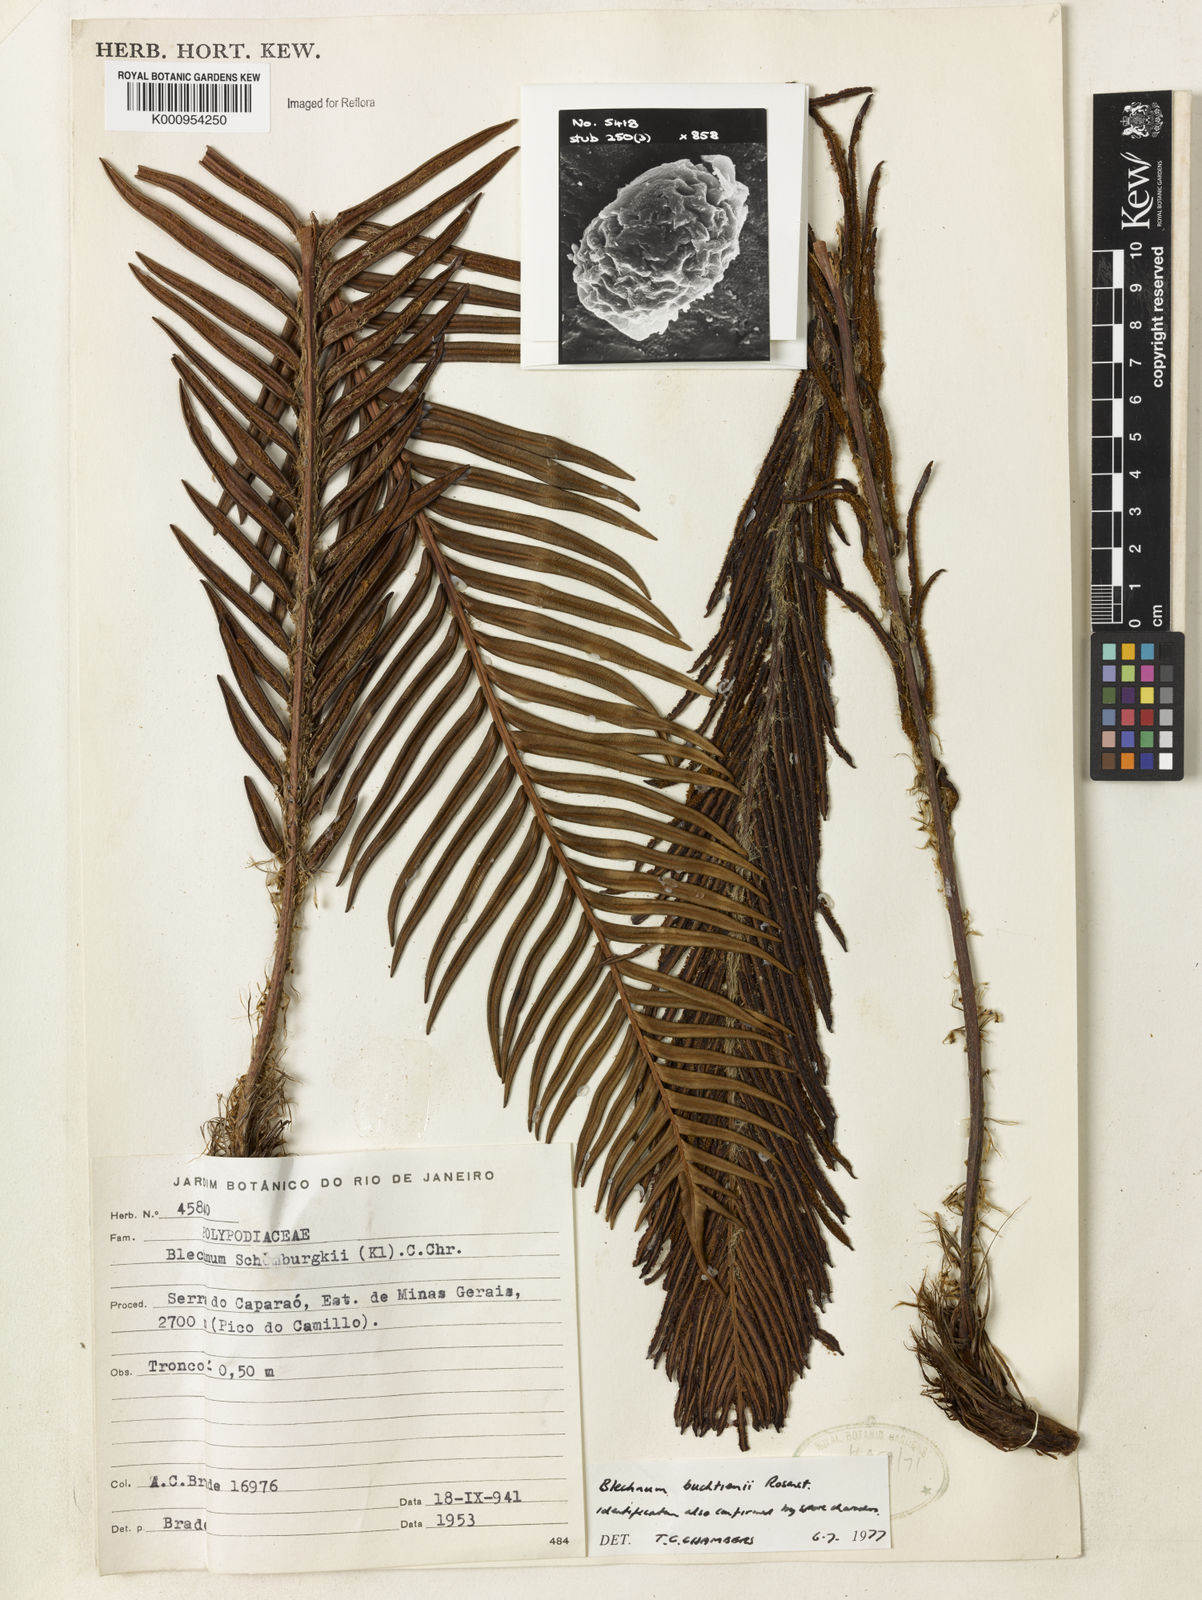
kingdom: Plantae
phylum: Tracheophyta
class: Polypodiopsida
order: Polypodiales
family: Blechnaceae
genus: Lomariocycas
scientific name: Lomariocycas aurata
